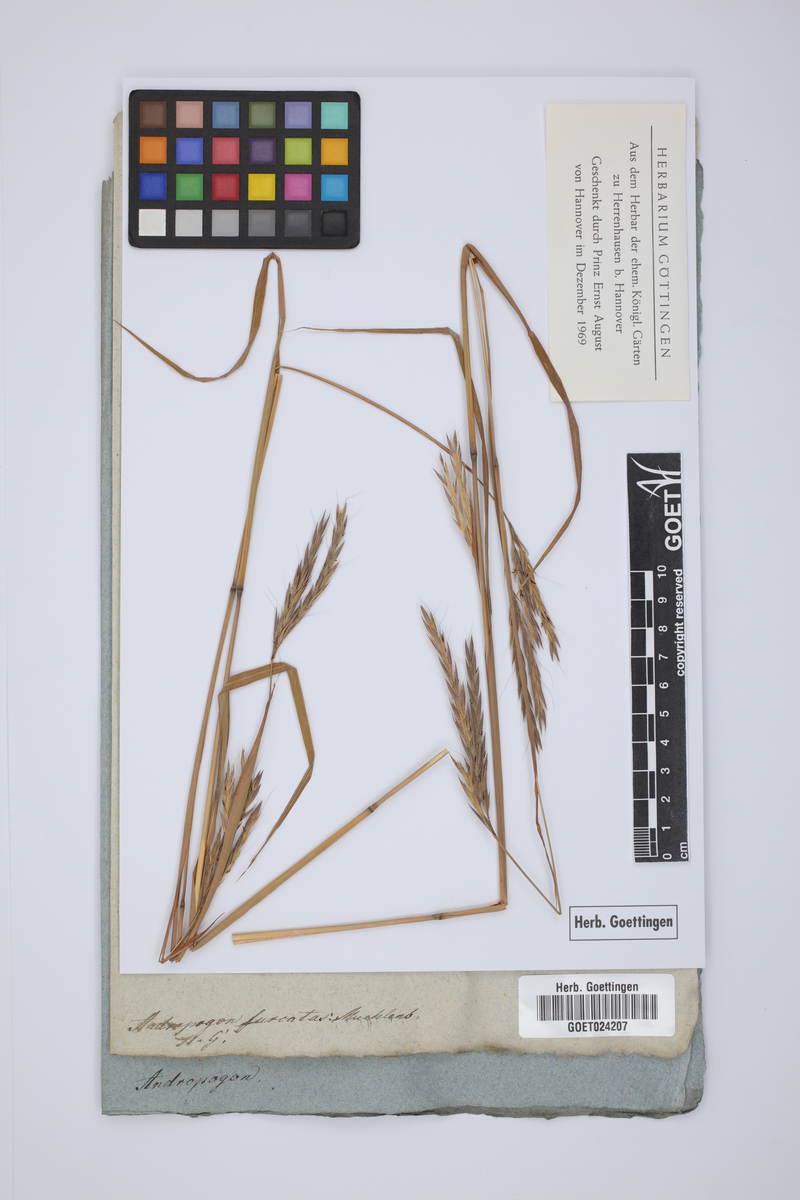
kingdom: Plantae
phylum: Tracheophyta
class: Liliopsida
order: Poales
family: Poaceae
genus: Andropogon
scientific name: Andropogon gerardi
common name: Big bluestem
